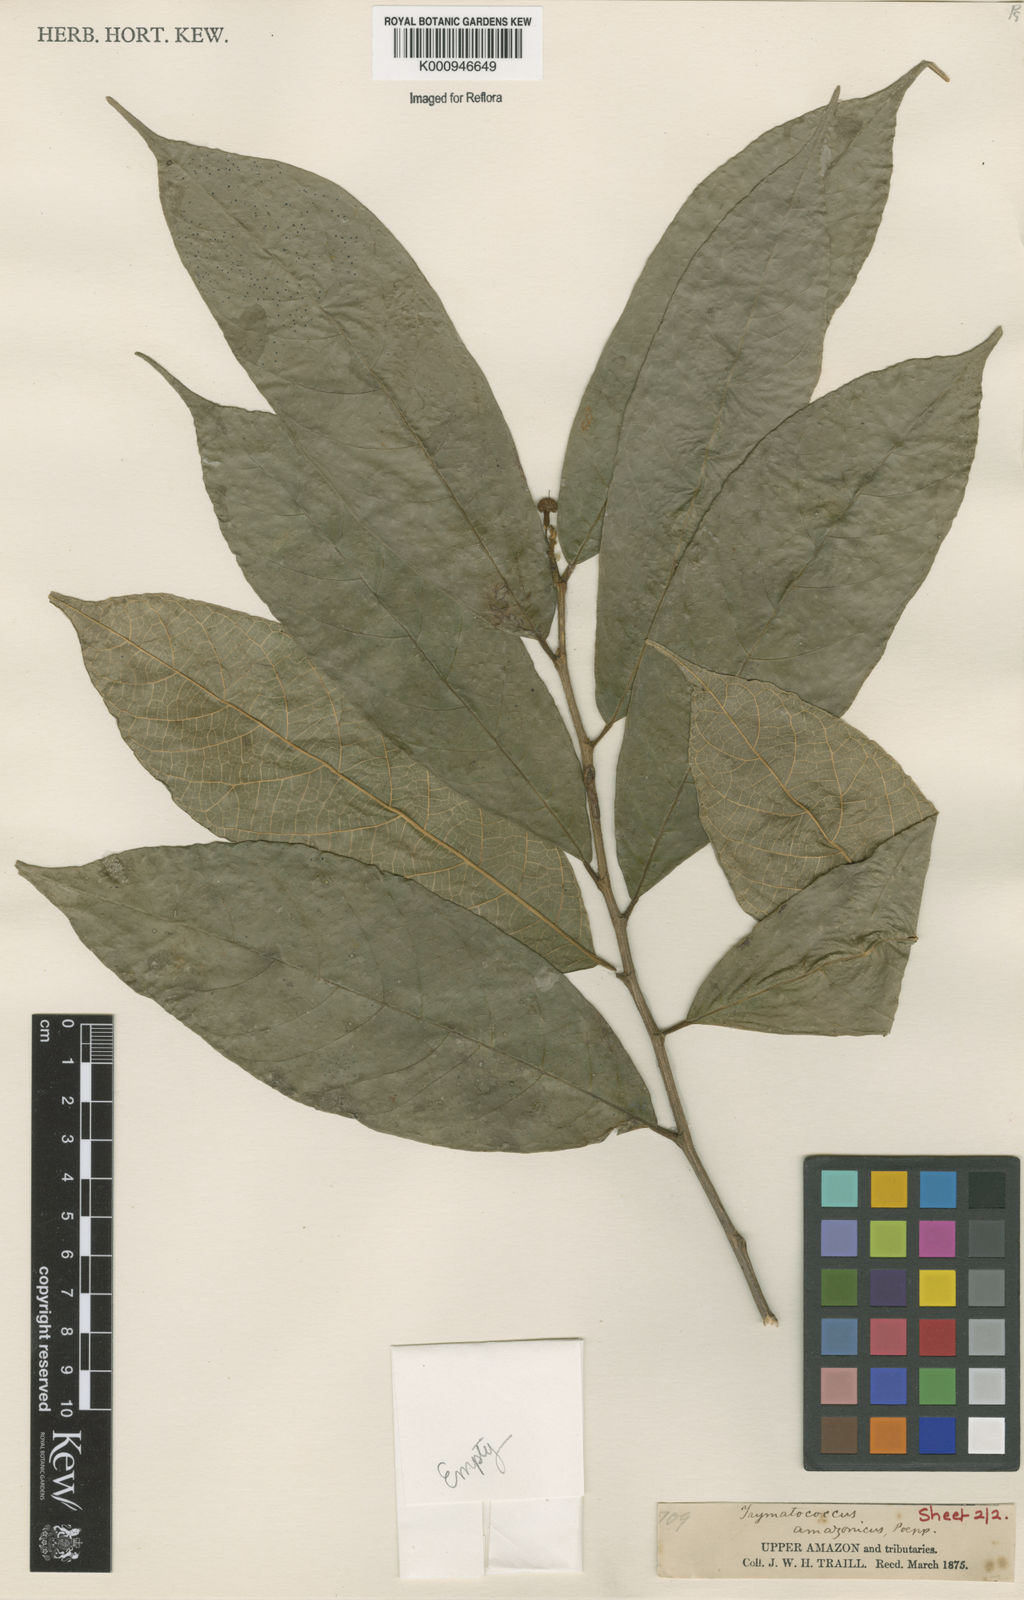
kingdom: Plantae
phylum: Tracheophyta
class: Magnoliopsida
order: Rosales
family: Moraceae
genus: Brosimum
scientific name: Brosimum amazonicum
